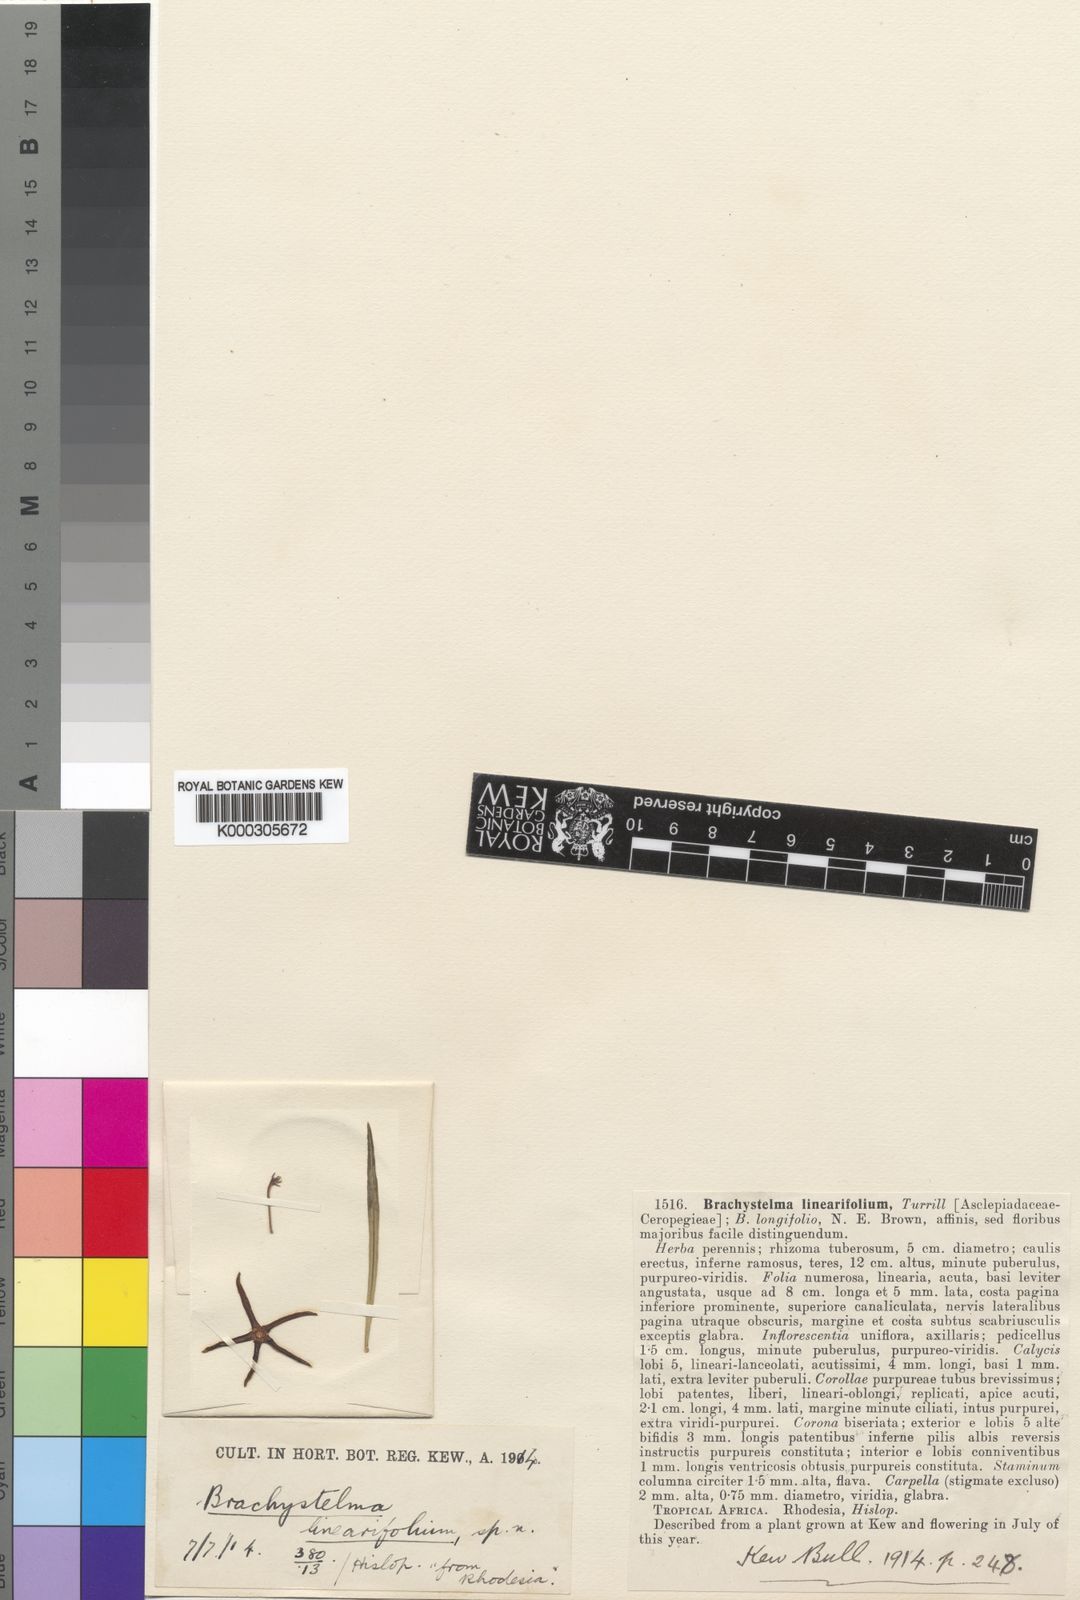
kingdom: Plantae
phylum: Tracheophyta
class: Magnoliopsida
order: Gentianales
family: Apocynaceae
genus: Ceropegia
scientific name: Ceropegia plocamoides
